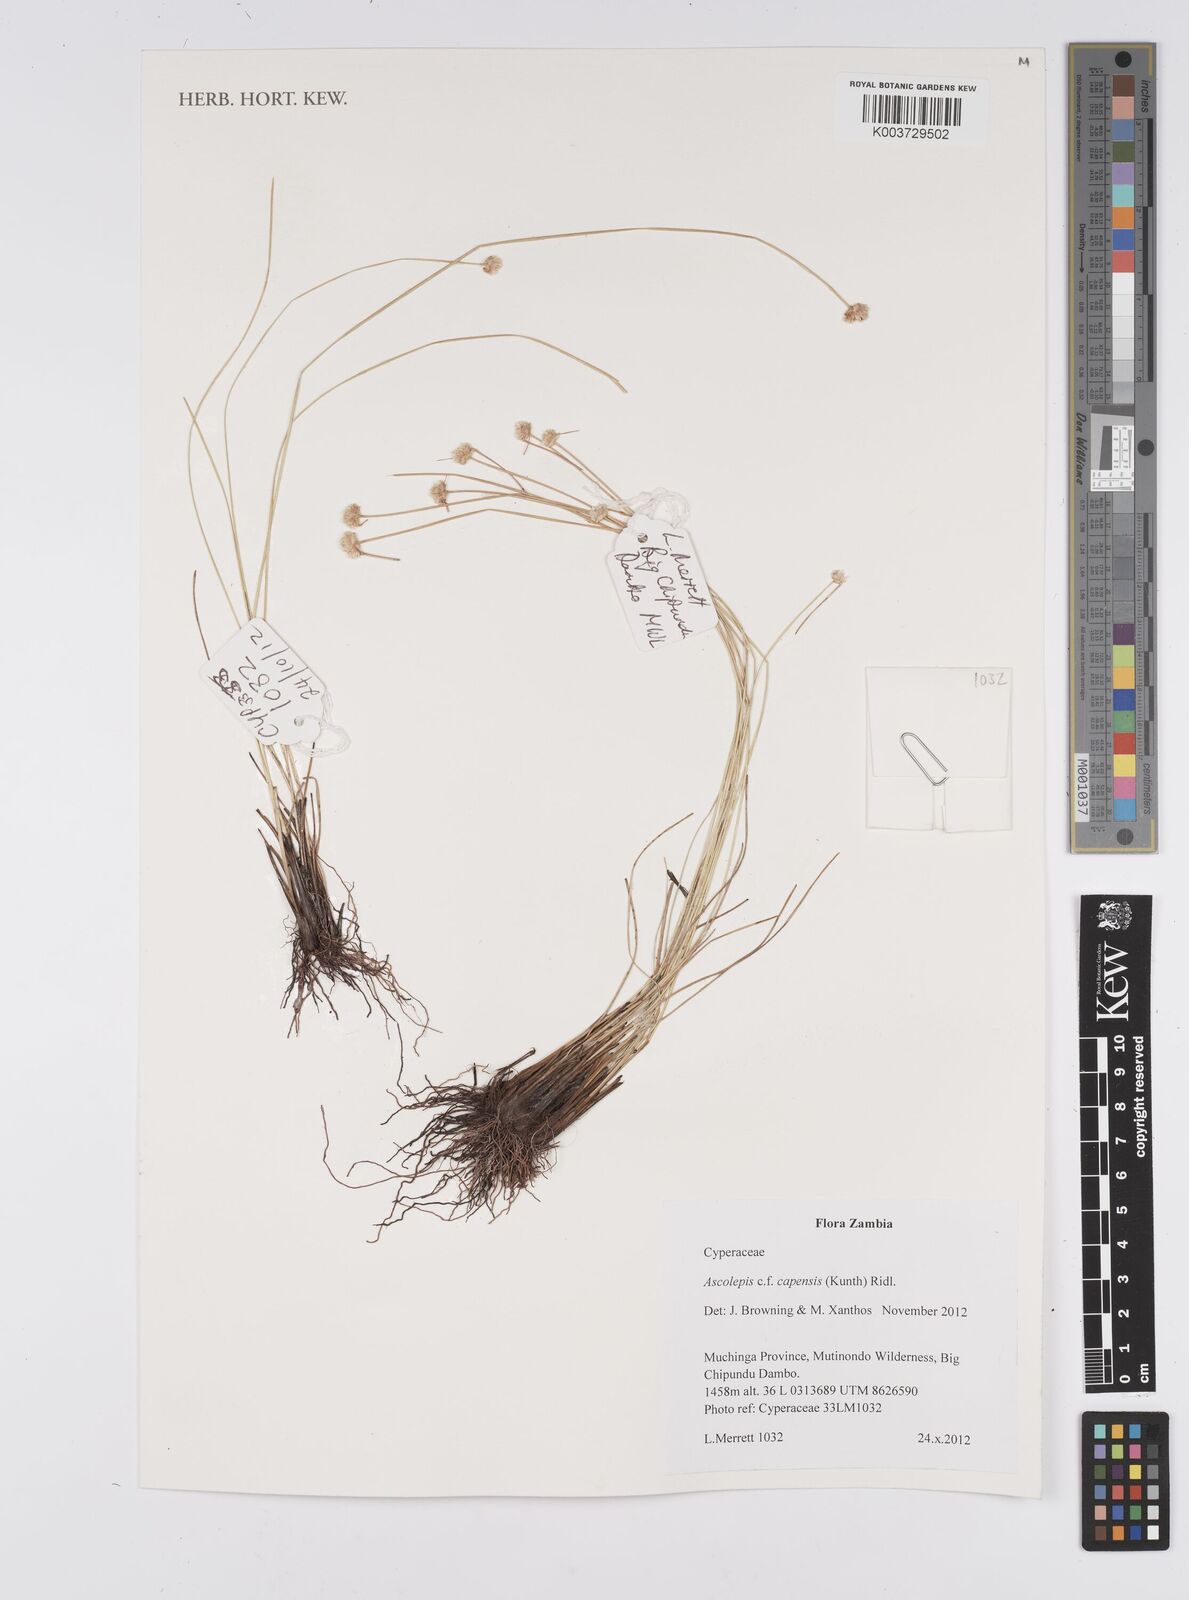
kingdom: Plantae
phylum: Tracheophyta
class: Liliopsida
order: Poales
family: Cyperaceae
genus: Cyperus
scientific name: Cyperus
